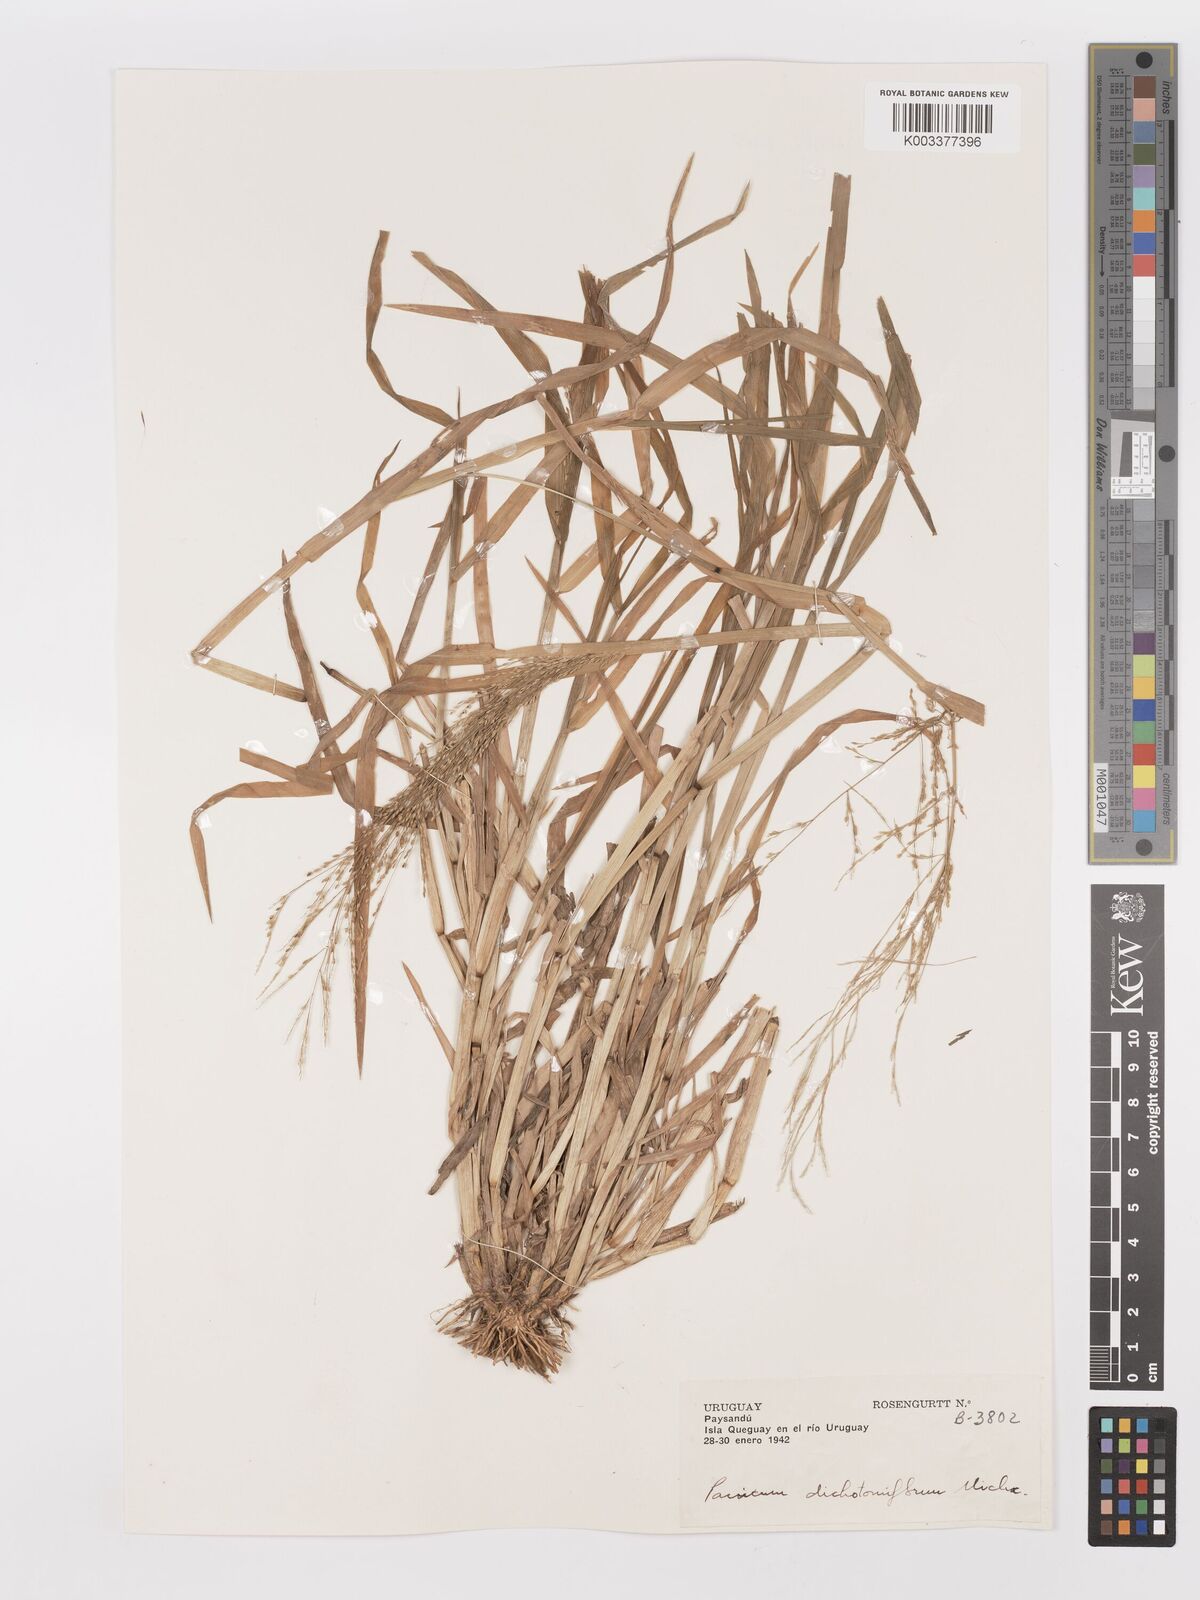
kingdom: Plantae
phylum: Tracheophyta
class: Liliopsida
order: Poales
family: Poaceae
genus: Panicum
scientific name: Panicum dichotomiflorum
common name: Autumn millet
